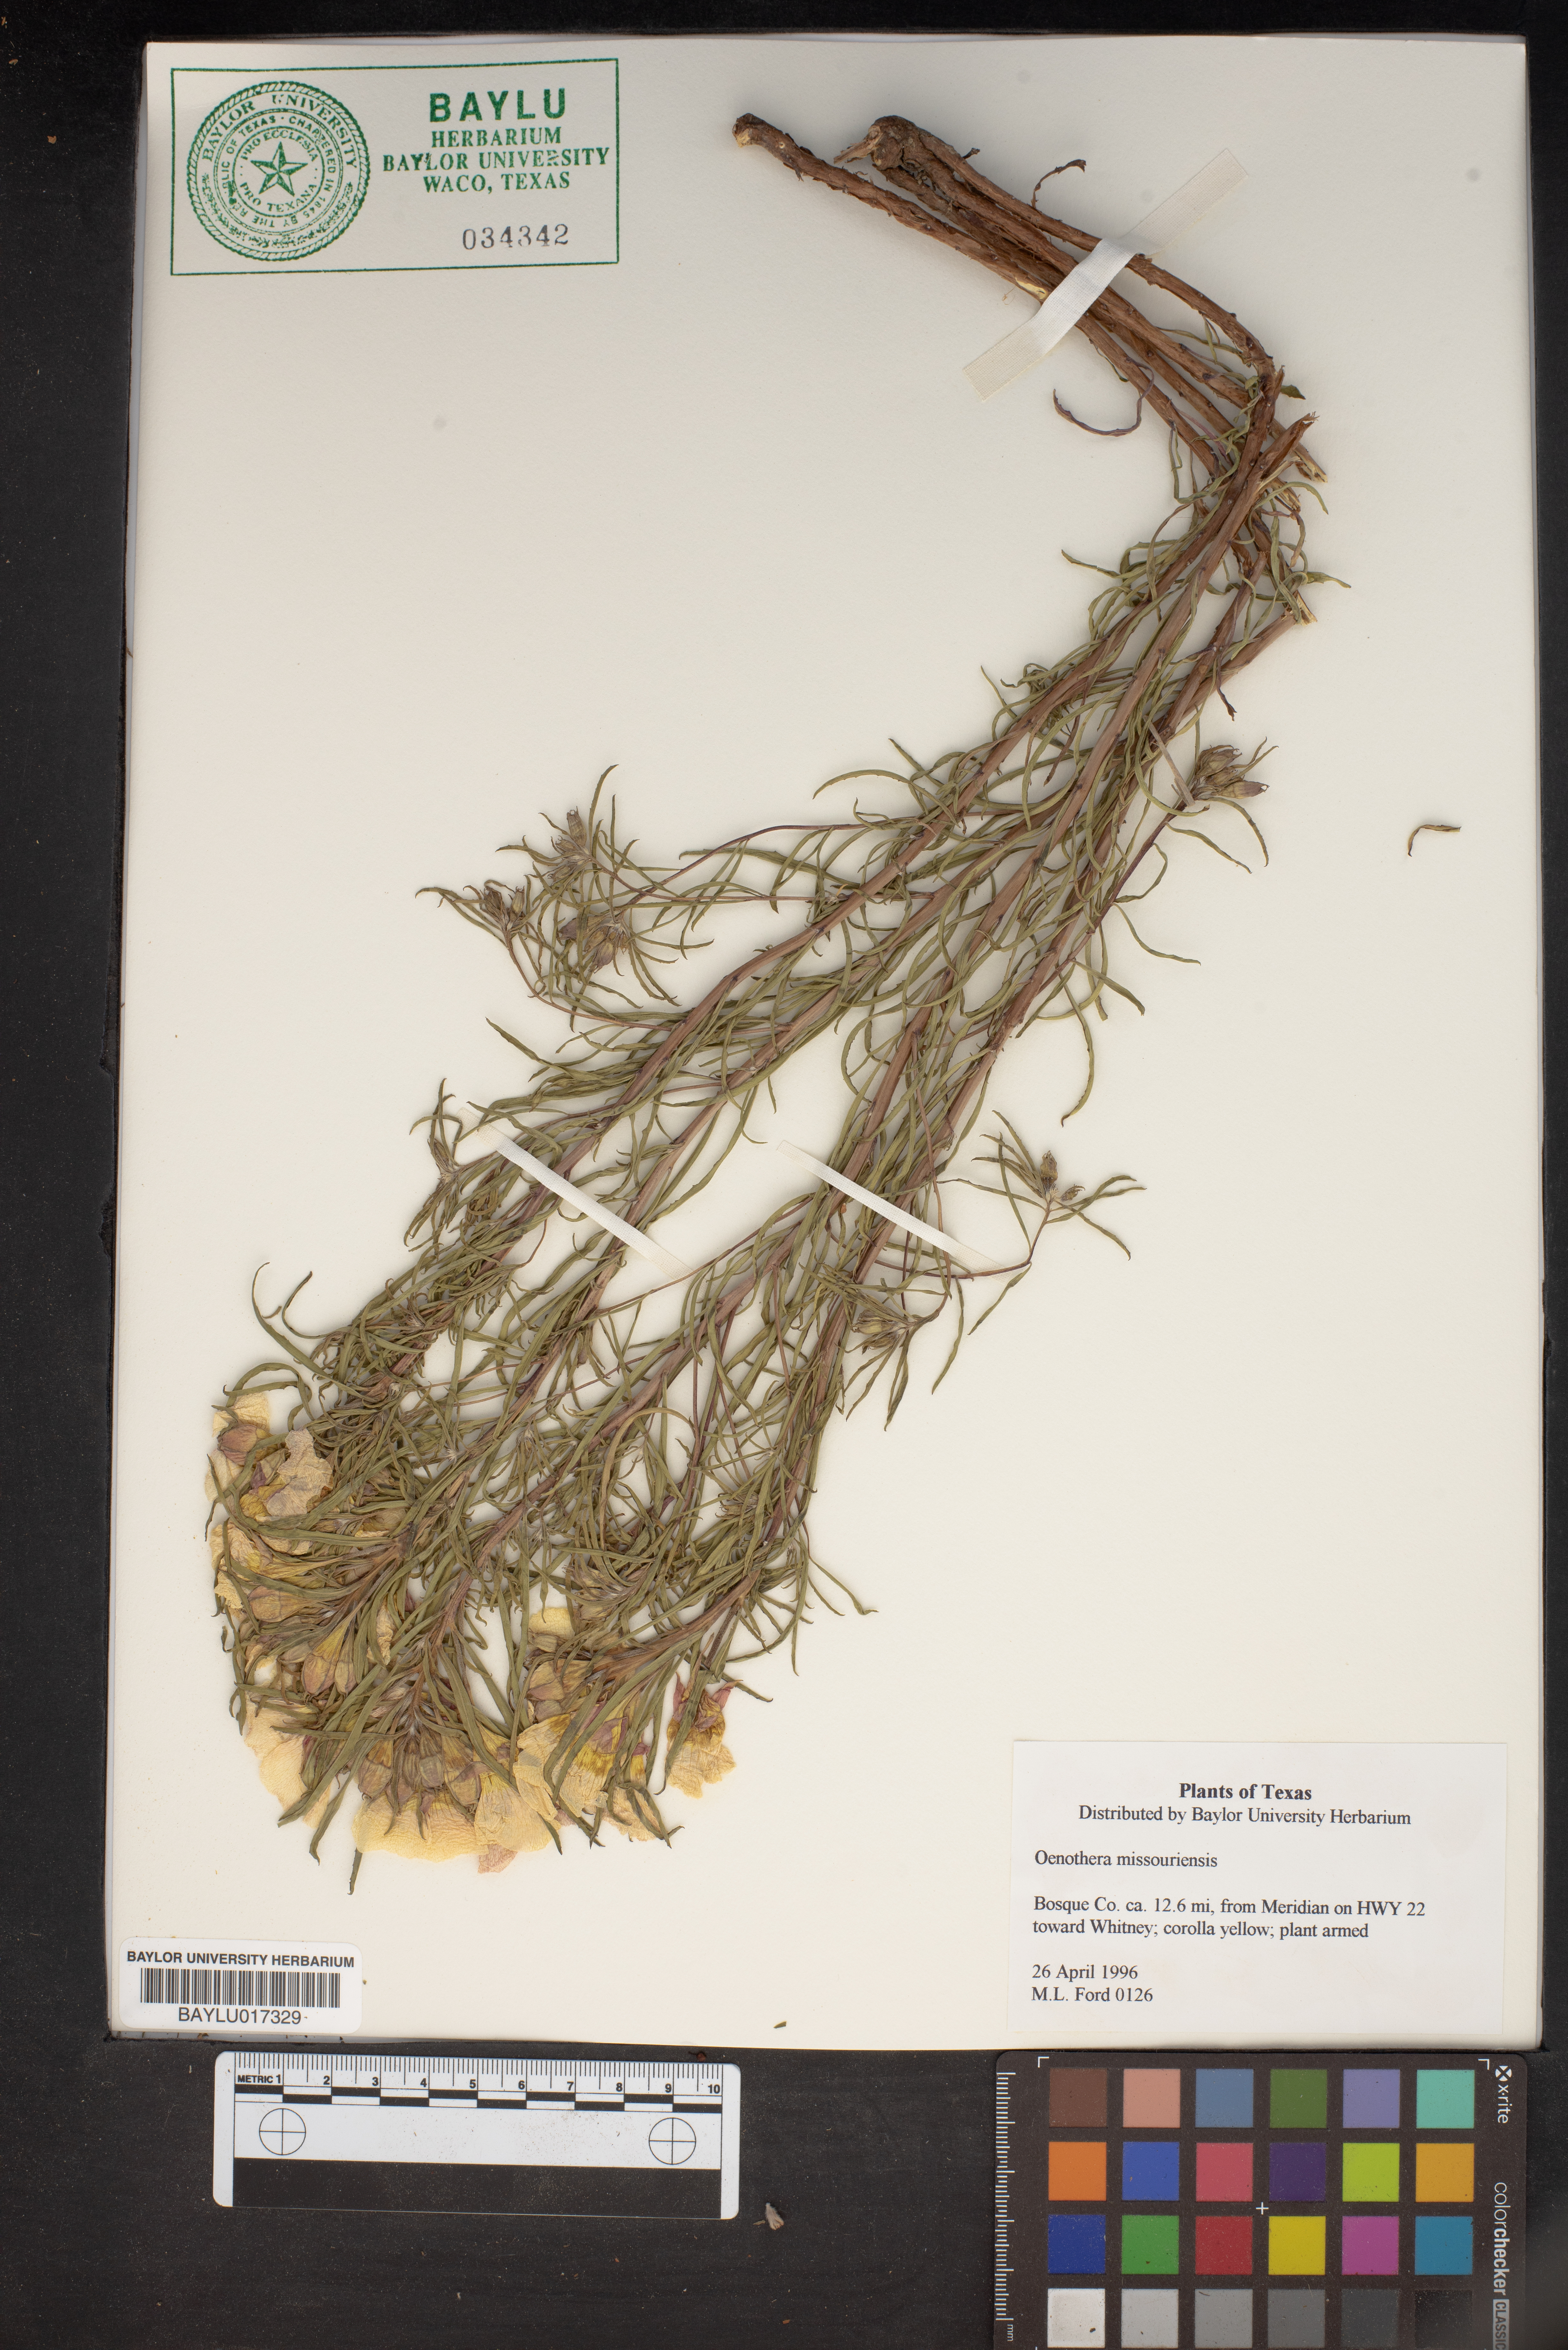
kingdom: Plantae
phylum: Tracheophyta
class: Magnoliopsida
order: Myrtales
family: Onagraceae
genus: Oenothera
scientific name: Oenothera macrocarpa
